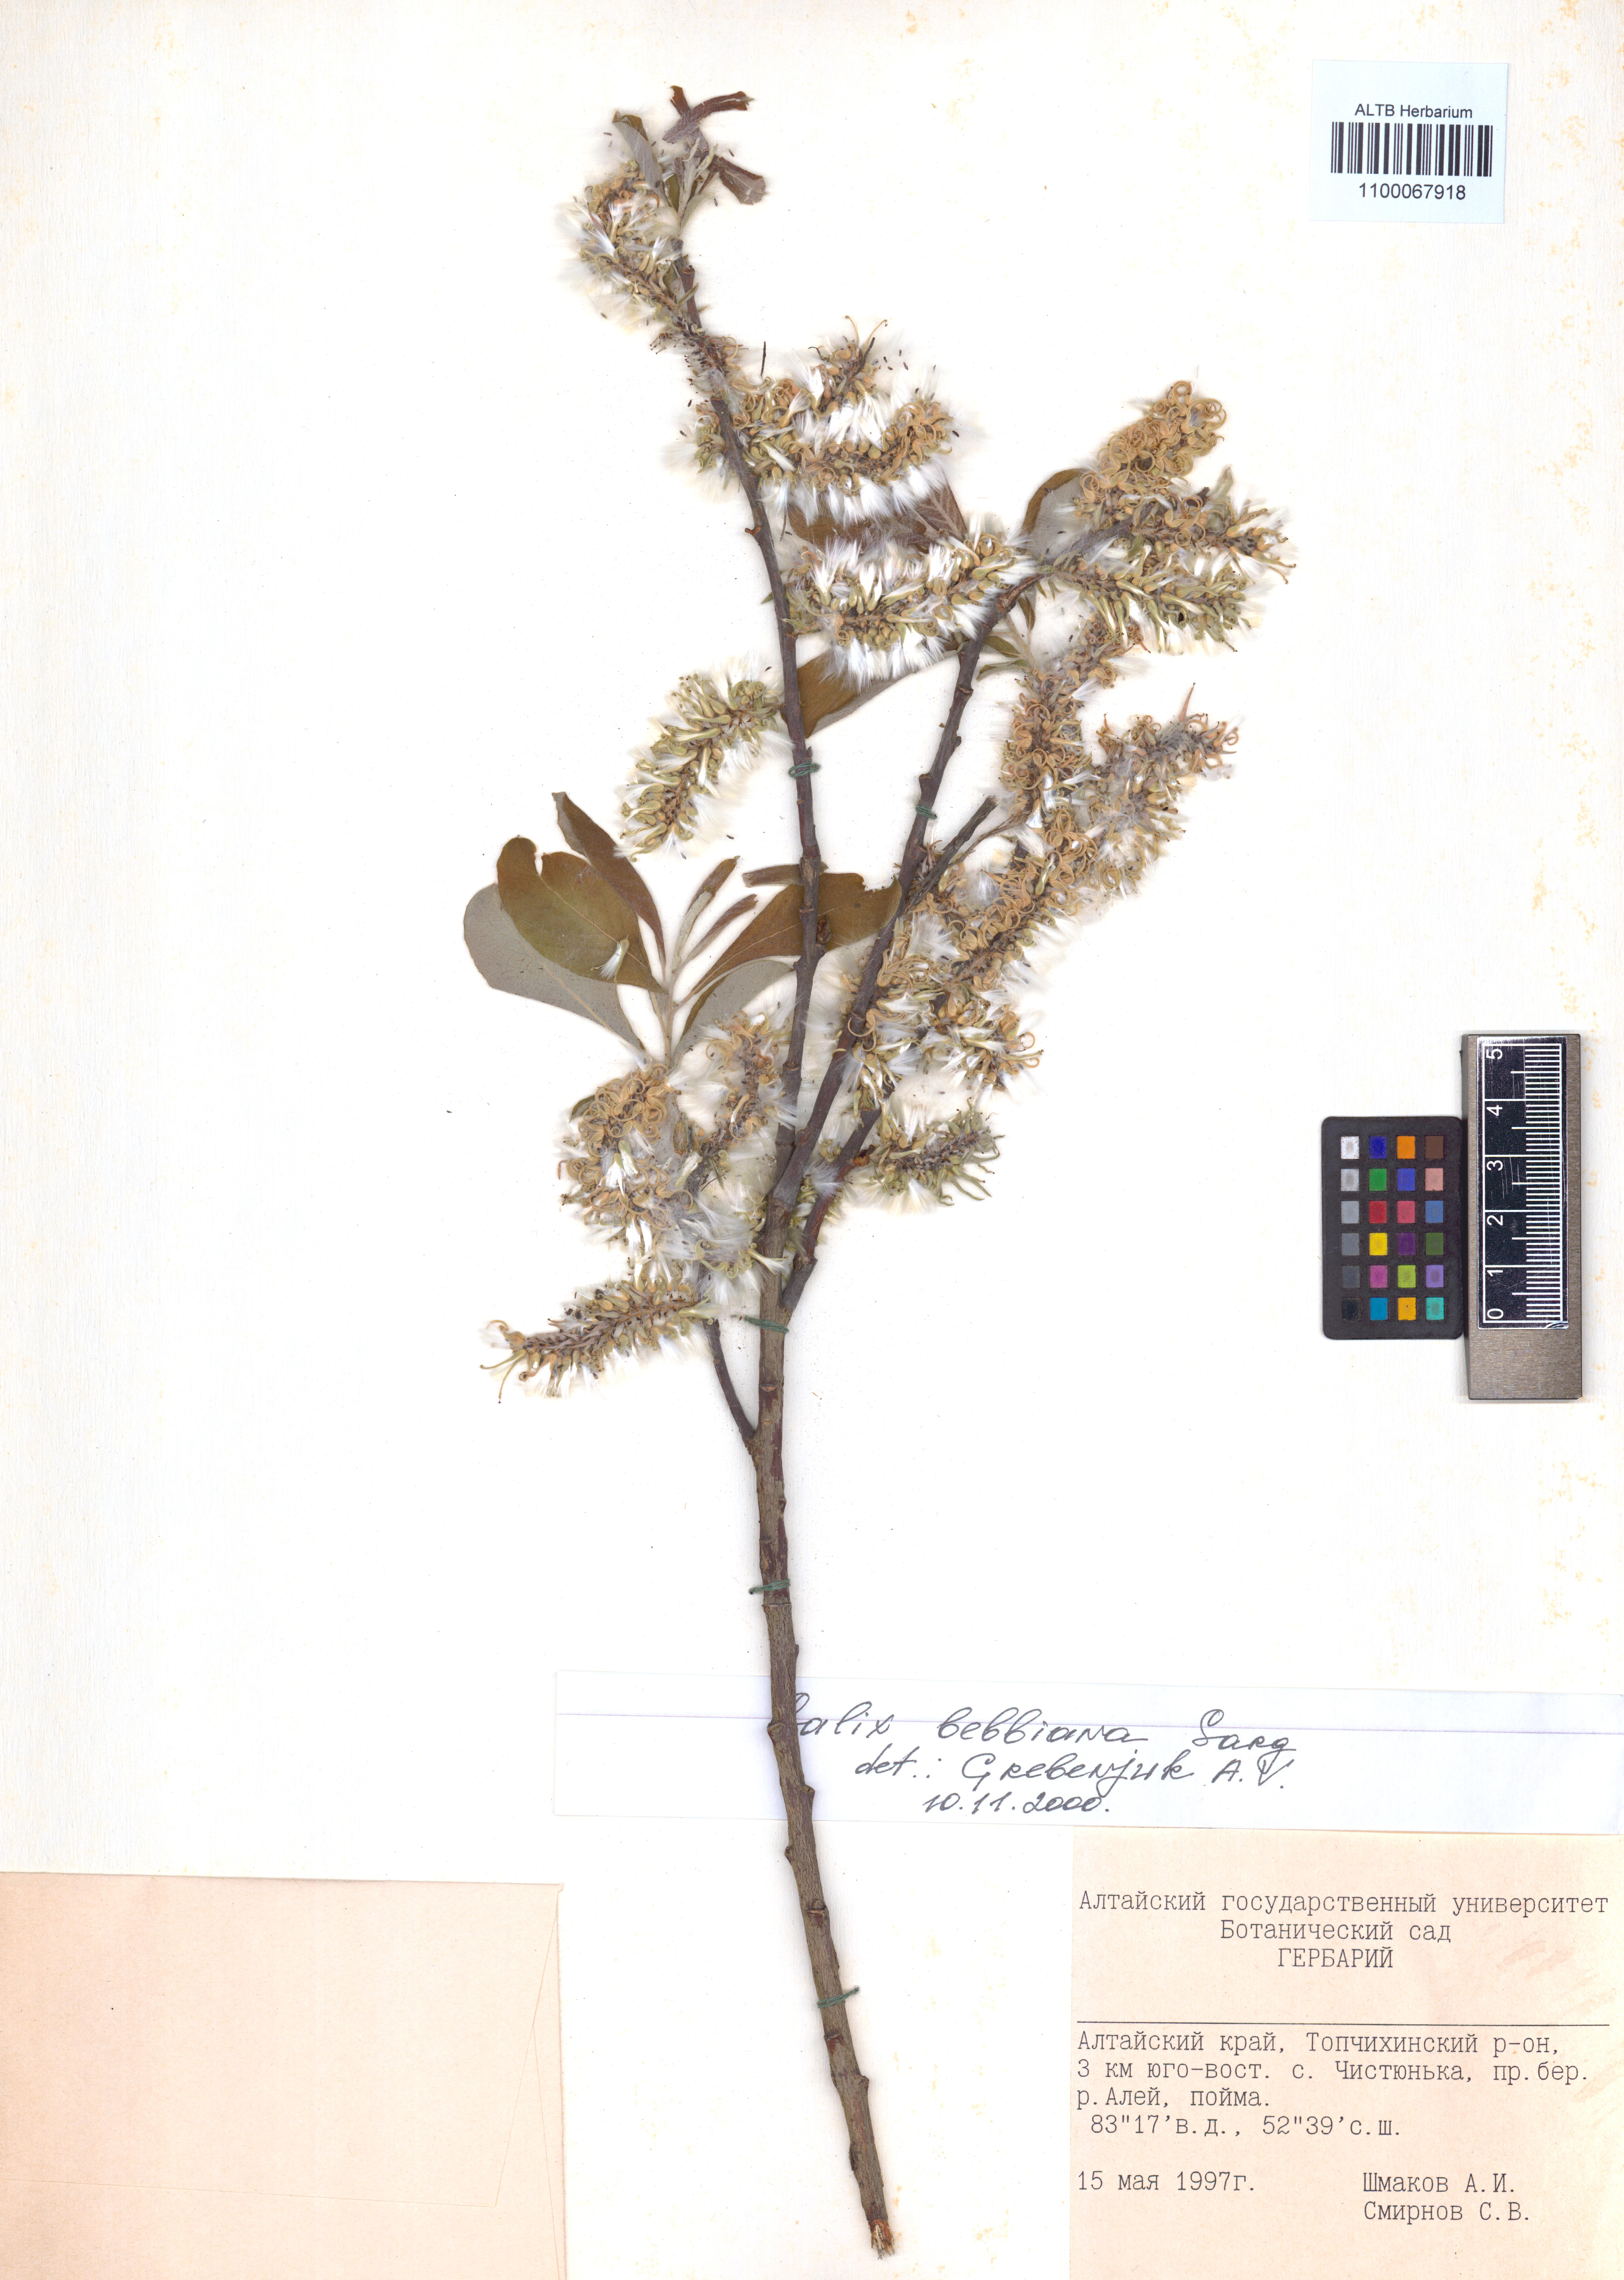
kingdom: Plantae
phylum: Tracheophyta
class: Magnoliopsida
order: Malpighiales
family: Salicaceae
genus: Salix
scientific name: Salix bebbiana
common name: Bebb's willow
